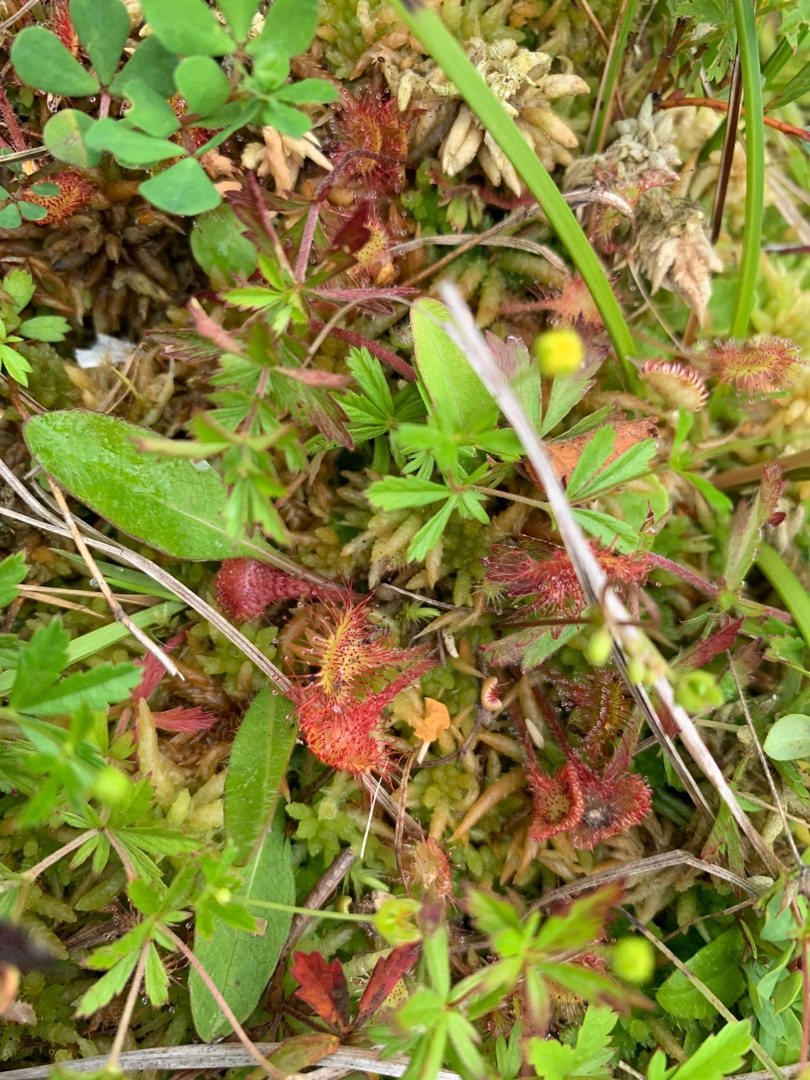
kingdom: Plantae
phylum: Tracheophyta
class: Magnoliopsida
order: Caryophyllales
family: Droseraceae
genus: Drosera
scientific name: Drosera rotundifolia
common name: Rundbladet soldug
